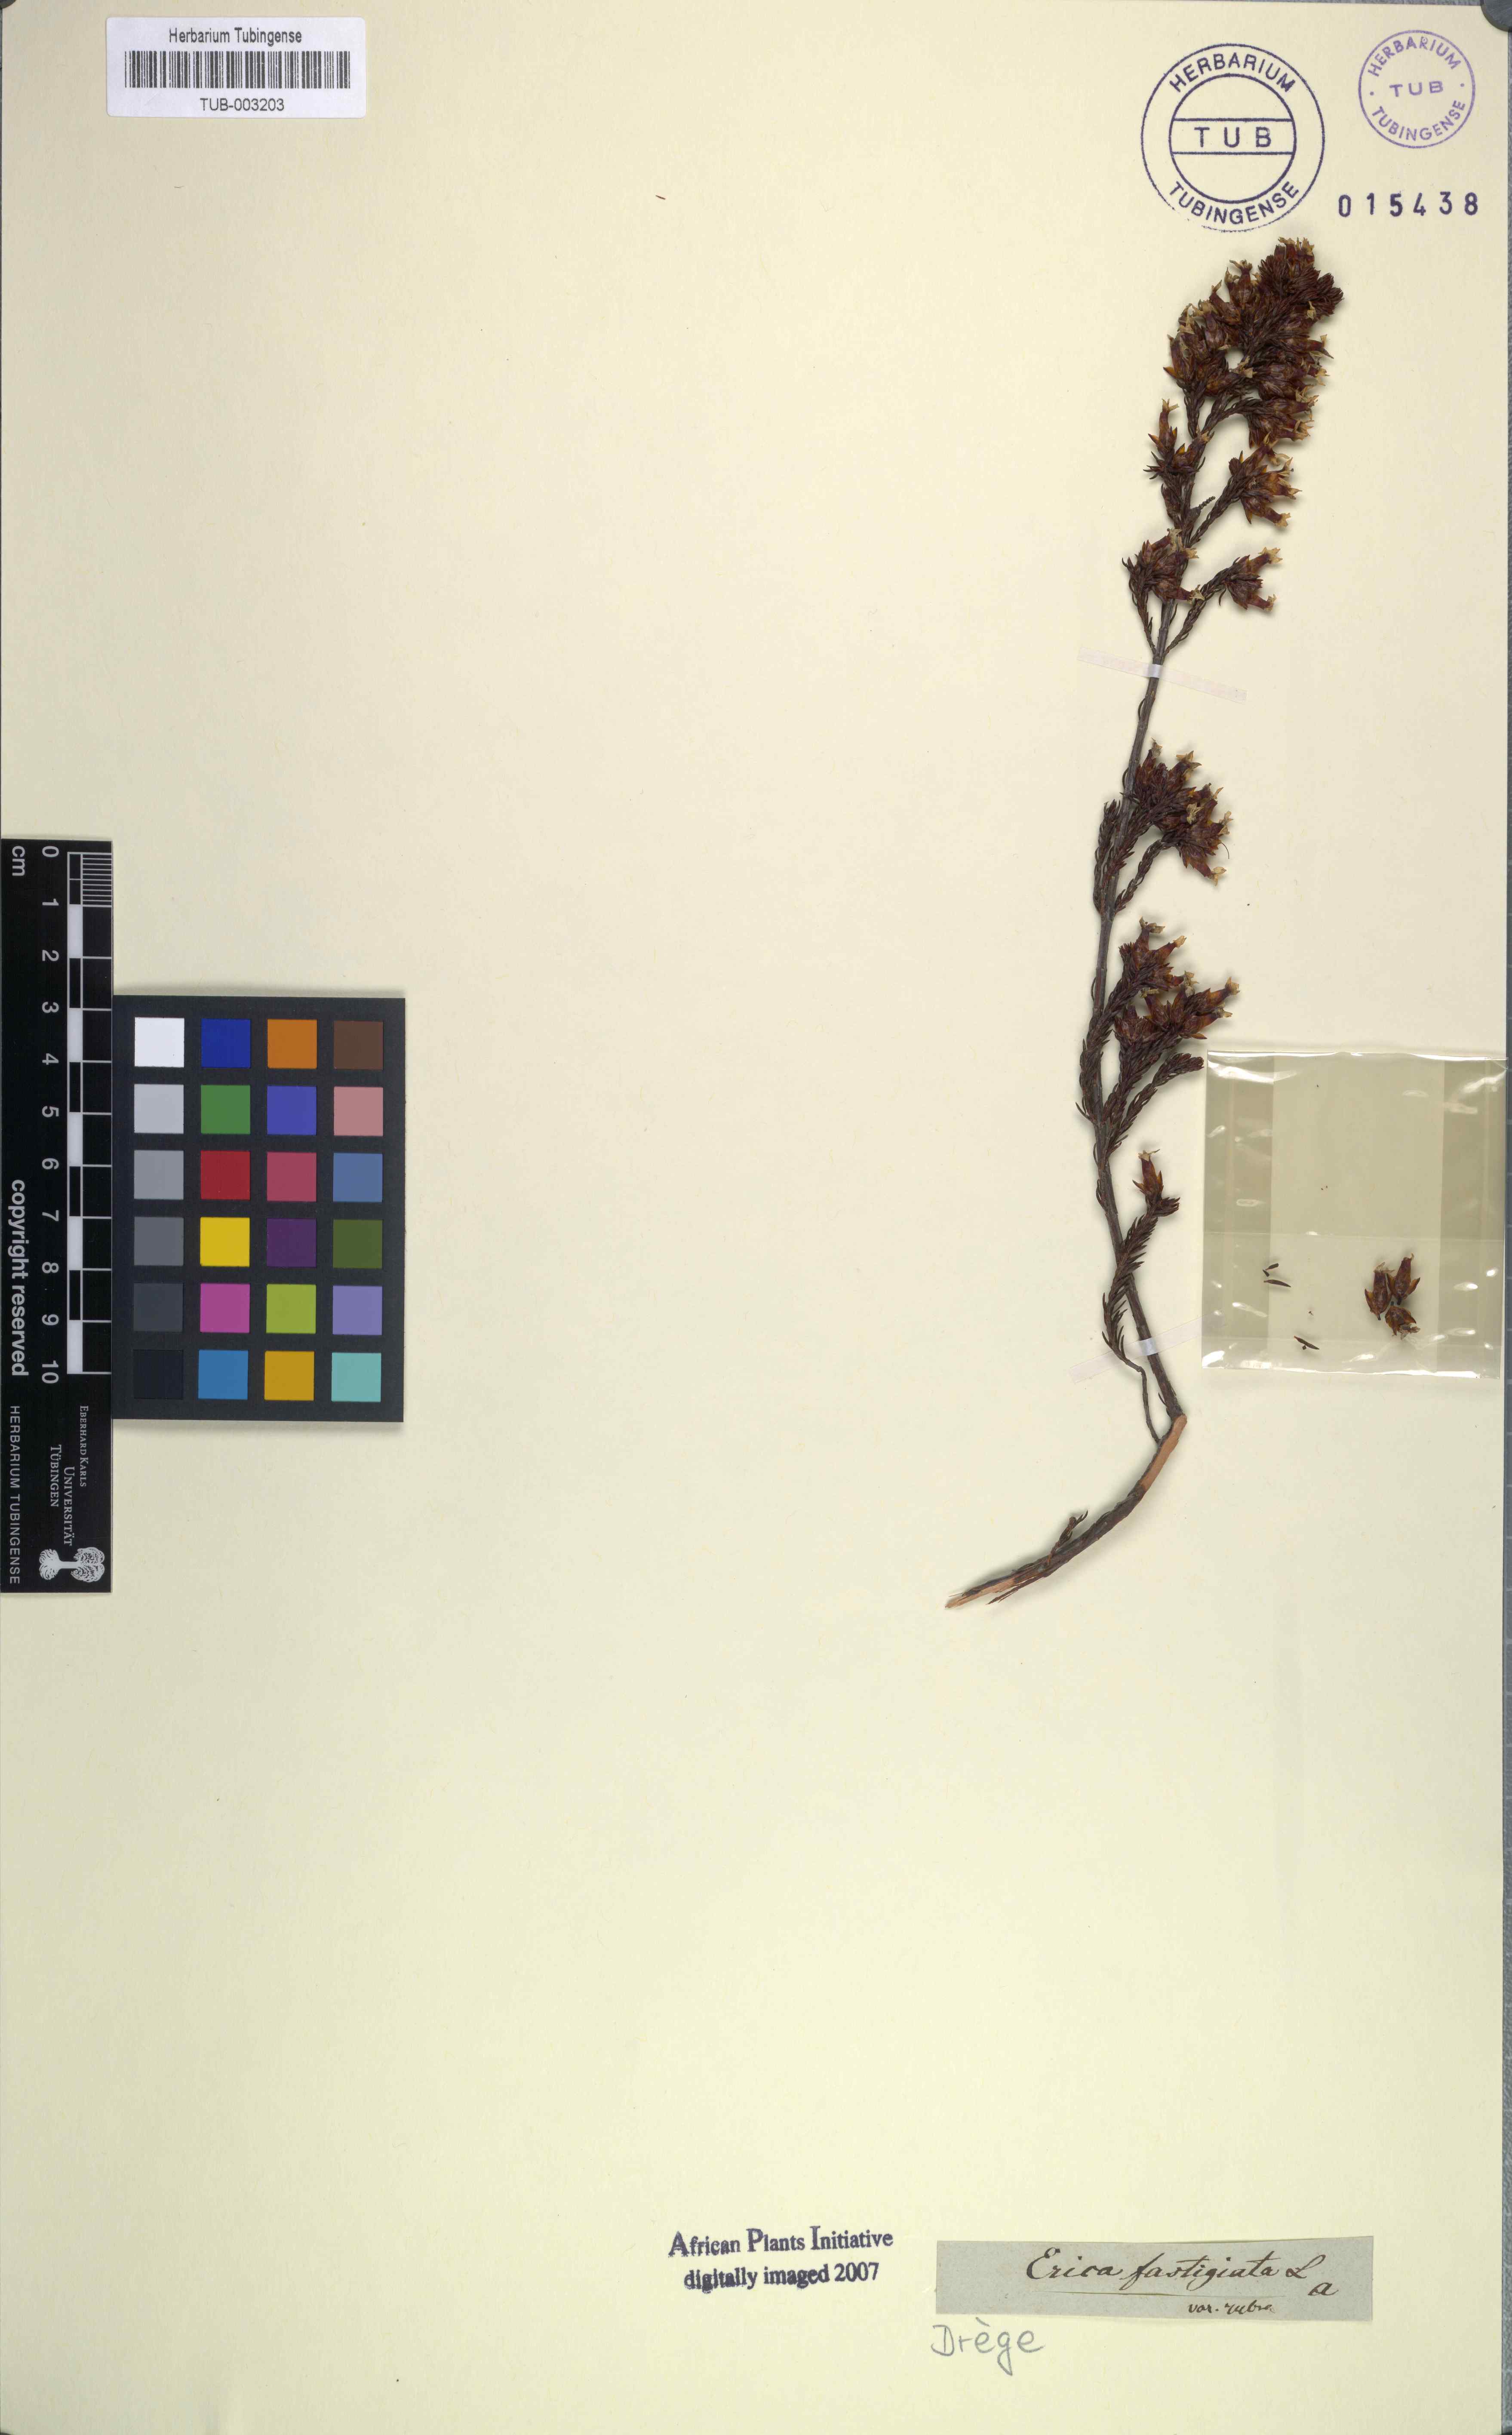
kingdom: Plantae
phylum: Tracheophyta
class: Magnoliopsida
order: Ericales
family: Ericaceae
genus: Erica
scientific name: Erica fastigiata
